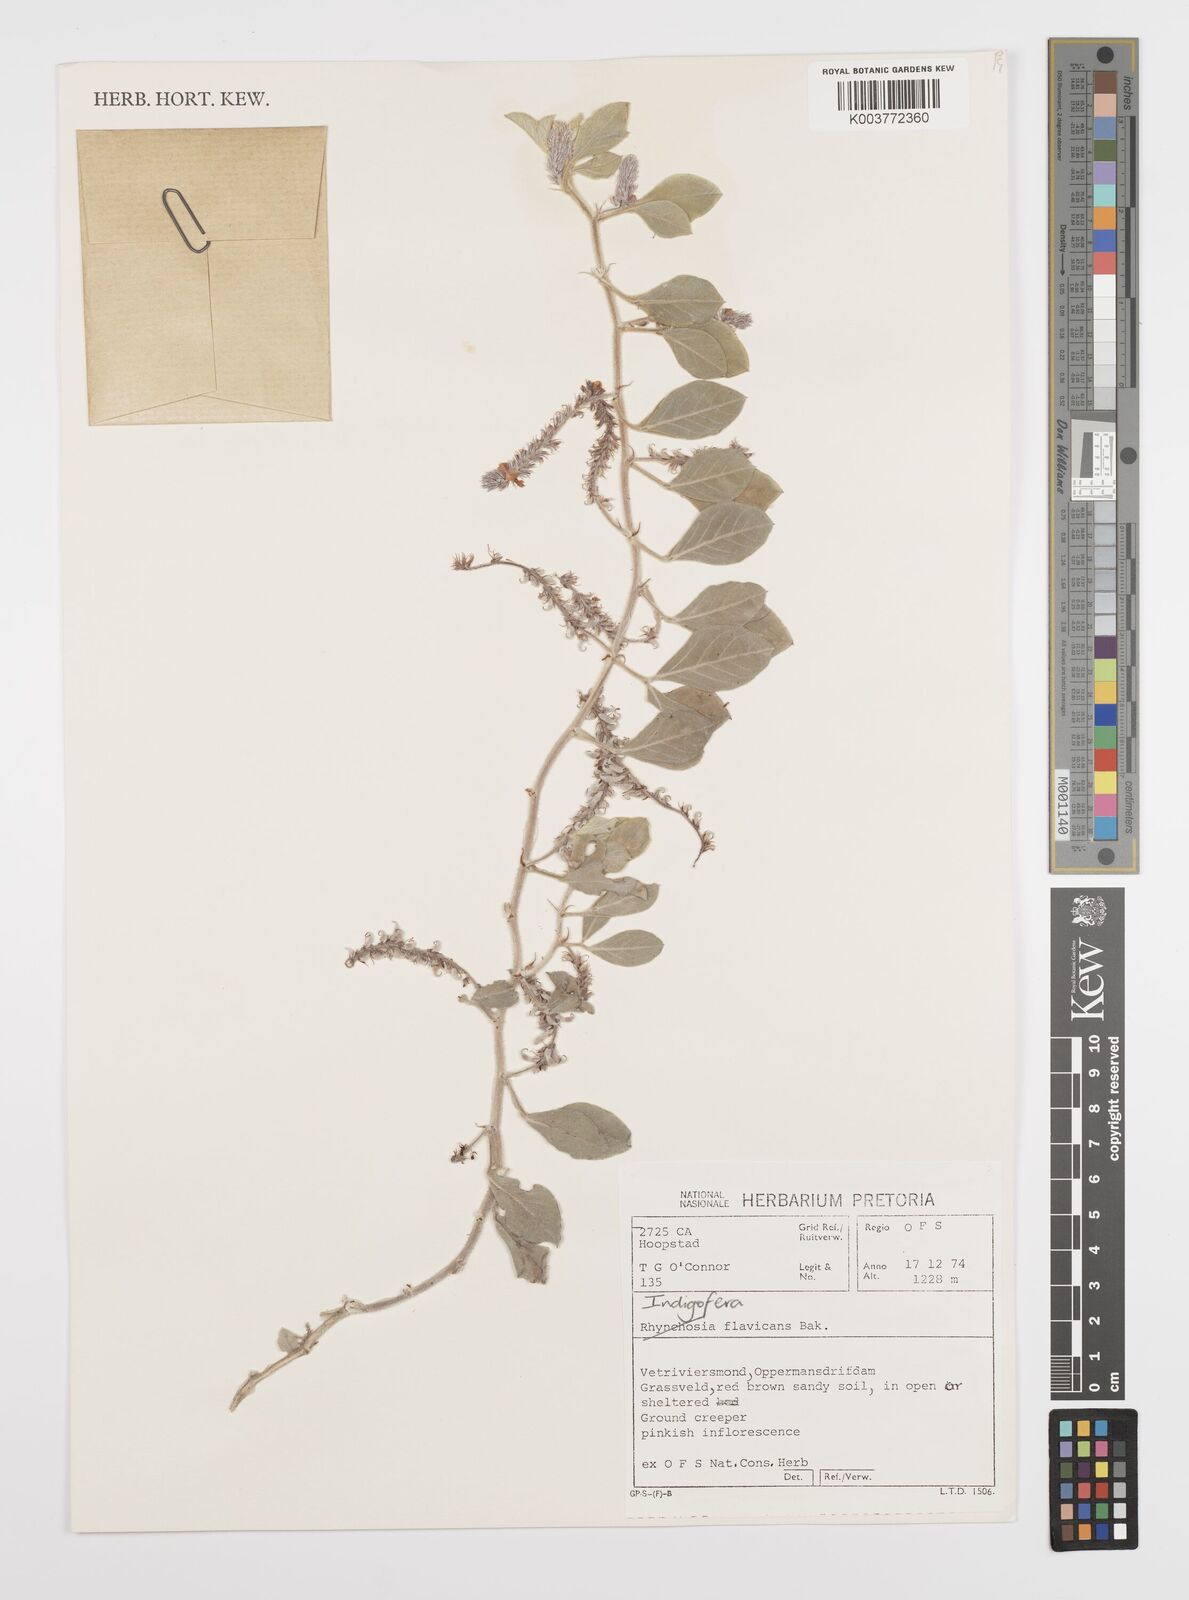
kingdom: Plantae
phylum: Tracheophyta
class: Magnoliopsida
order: Fabales
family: Fabaceae
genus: Indigofera
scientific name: Indigofera flavicans
